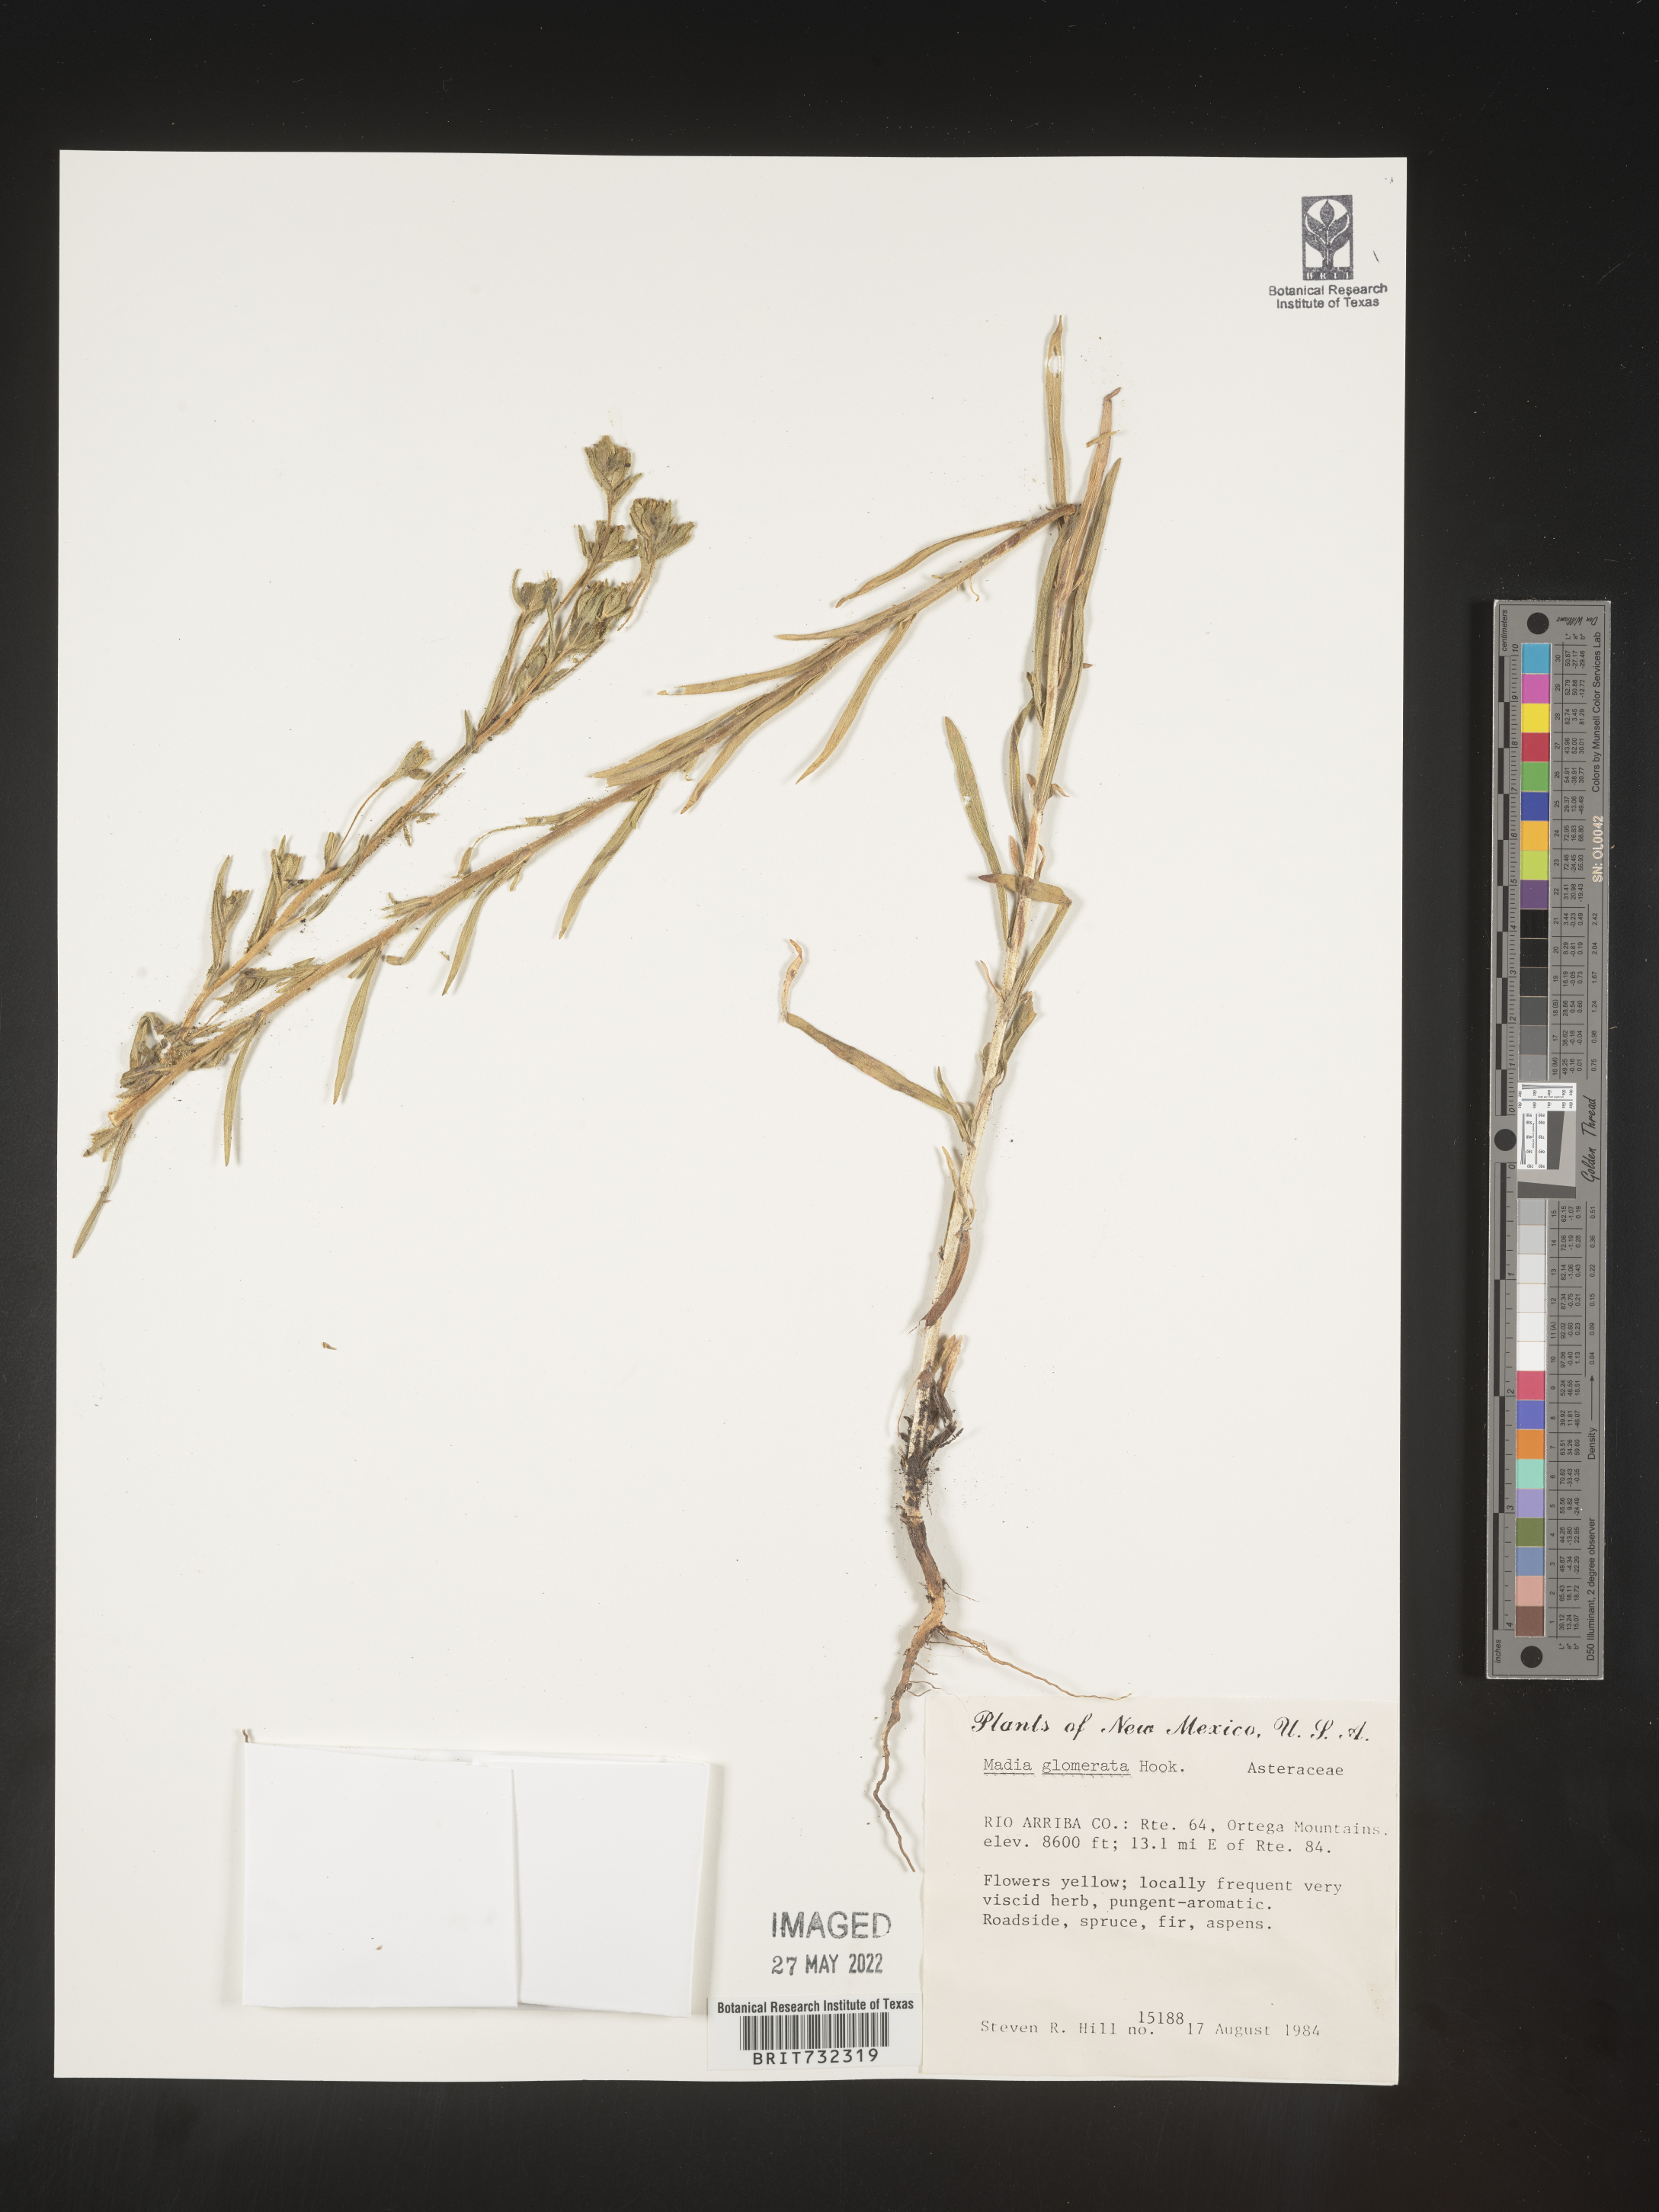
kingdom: Plantae
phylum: Tracheophyta
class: Magnoliopsida
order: Asterales
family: Asteraceae
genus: Madia
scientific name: Madia glomerata
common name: Mountain tarweed
